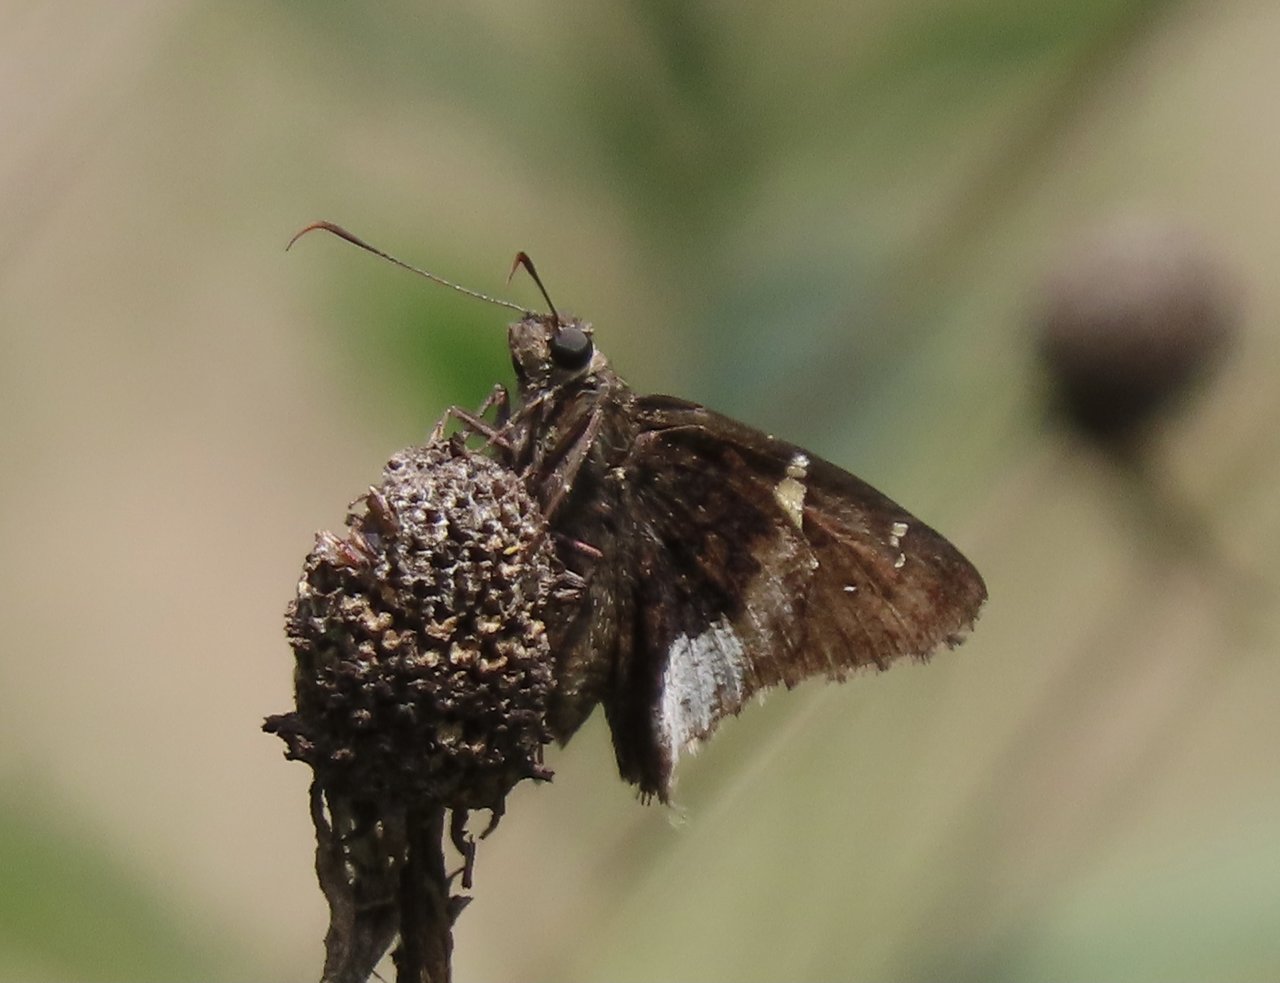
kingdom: Animalia
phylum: Arthropoda
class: Insecta
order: Lepidoptera
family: Hesperiidae
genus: Achalarus
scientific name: Achalarus lyciades
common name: Hoary Edge
